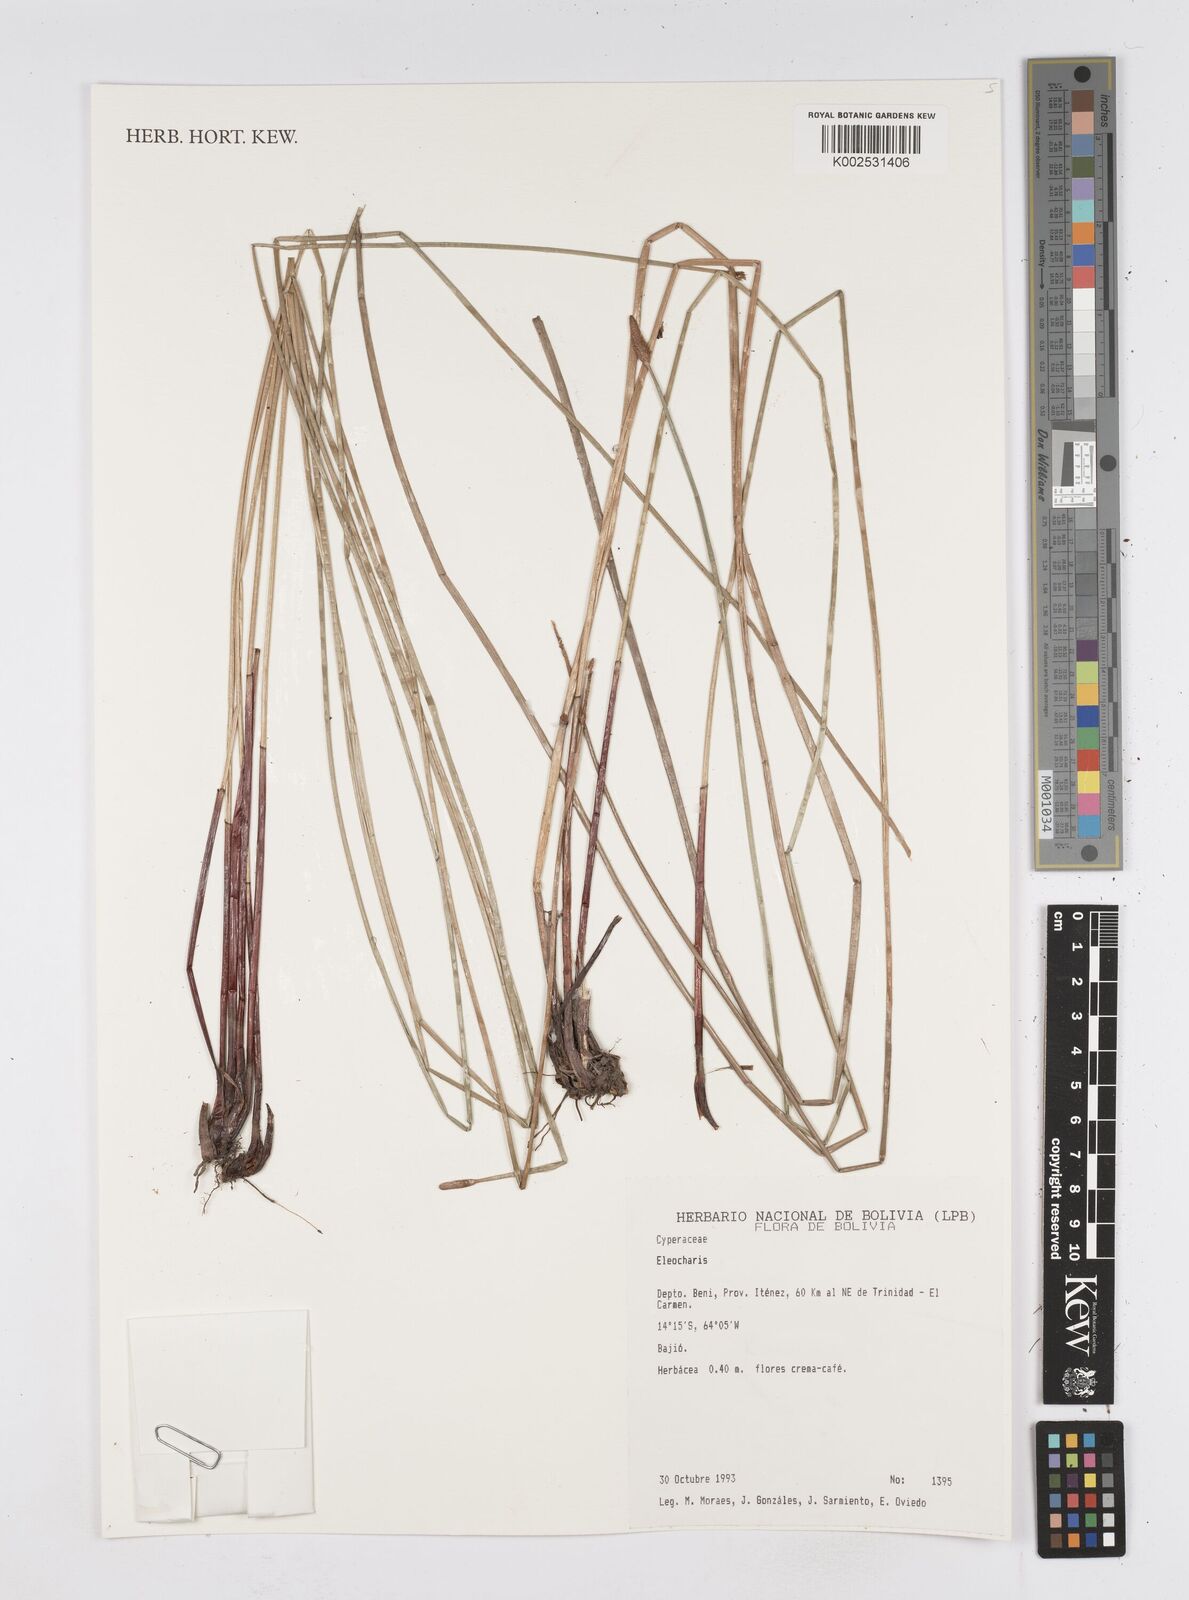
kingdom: Plantae
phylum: Tracheophyta
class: Liliopsida
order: Poales
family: Cyperaceae
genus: Eleocharis
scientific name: Eleocharis
